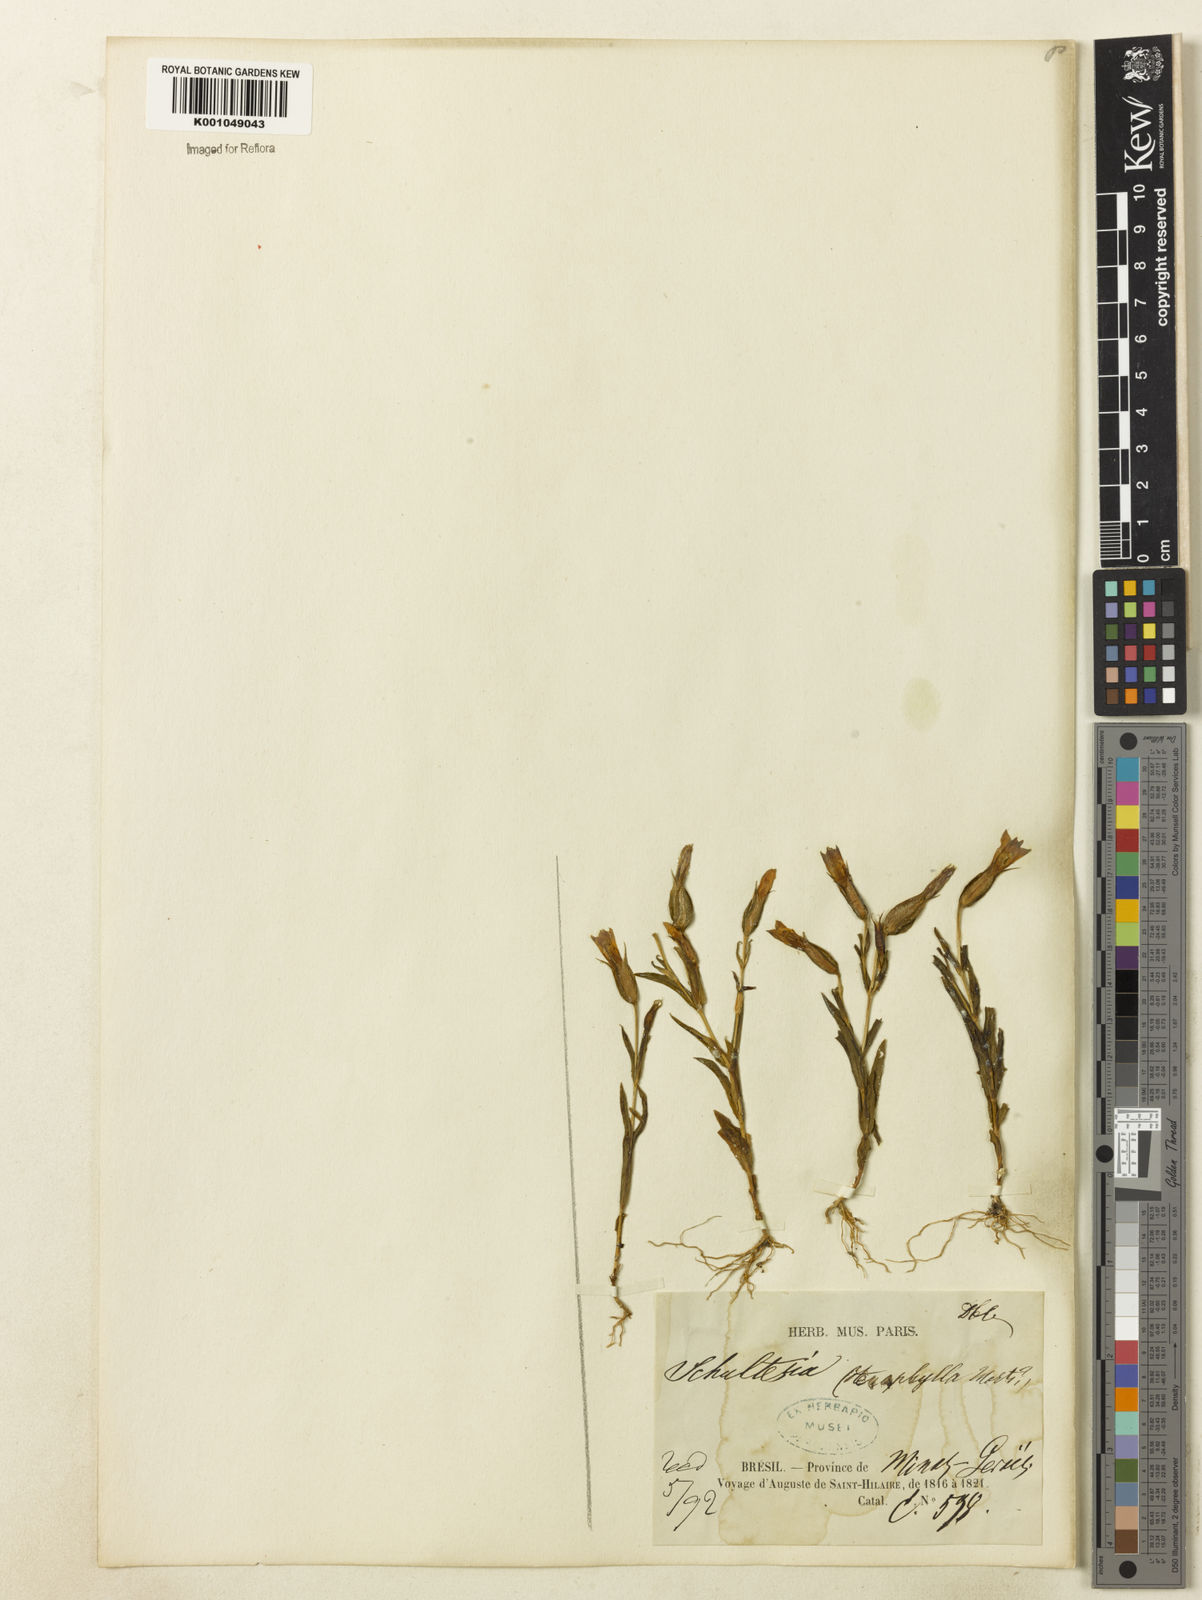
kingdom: Plantae
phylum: Tracheophyta
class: Magnoliopsida
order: Gentianales
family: Gentianaceae
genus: Schultesia
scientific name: Schultesia guianensis
